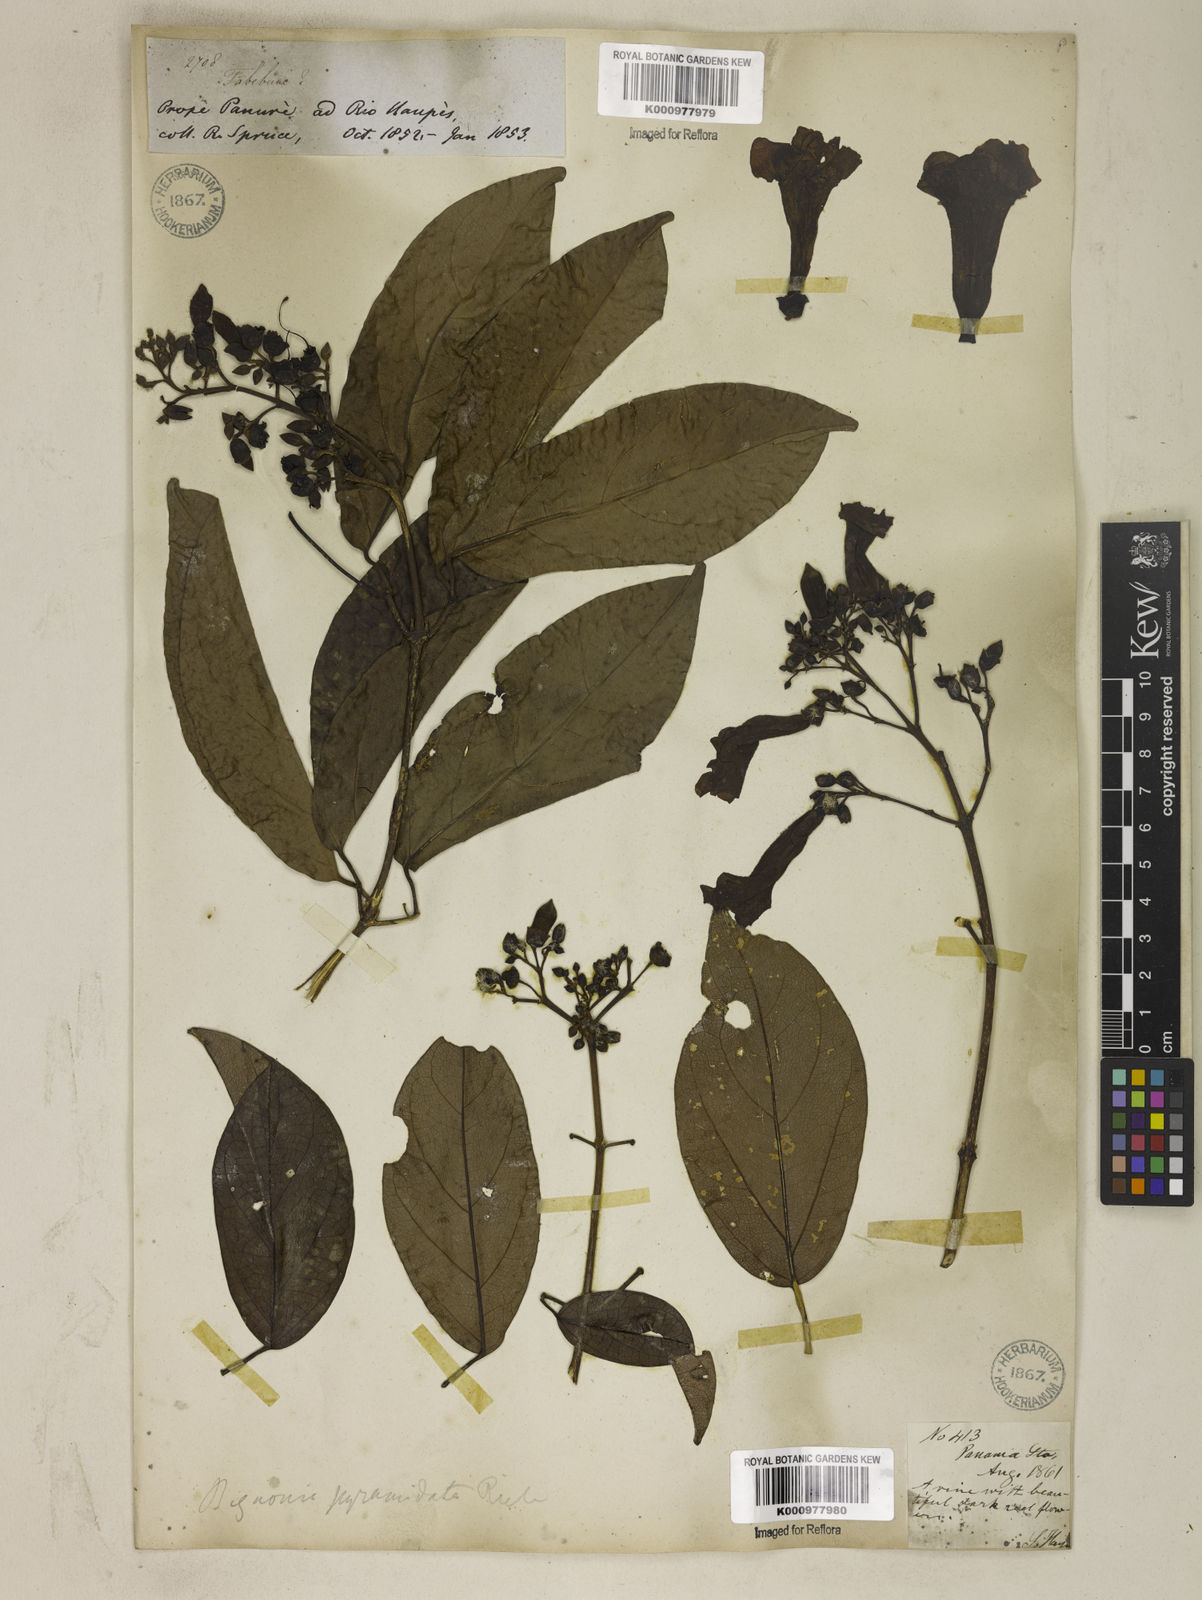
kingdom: Plantae
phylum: Tracheophyta
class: Magnoliopsida
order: Lamiales
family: Bignoniaceae
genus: Tanaecium
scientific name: Tanaecium pyramidatum
